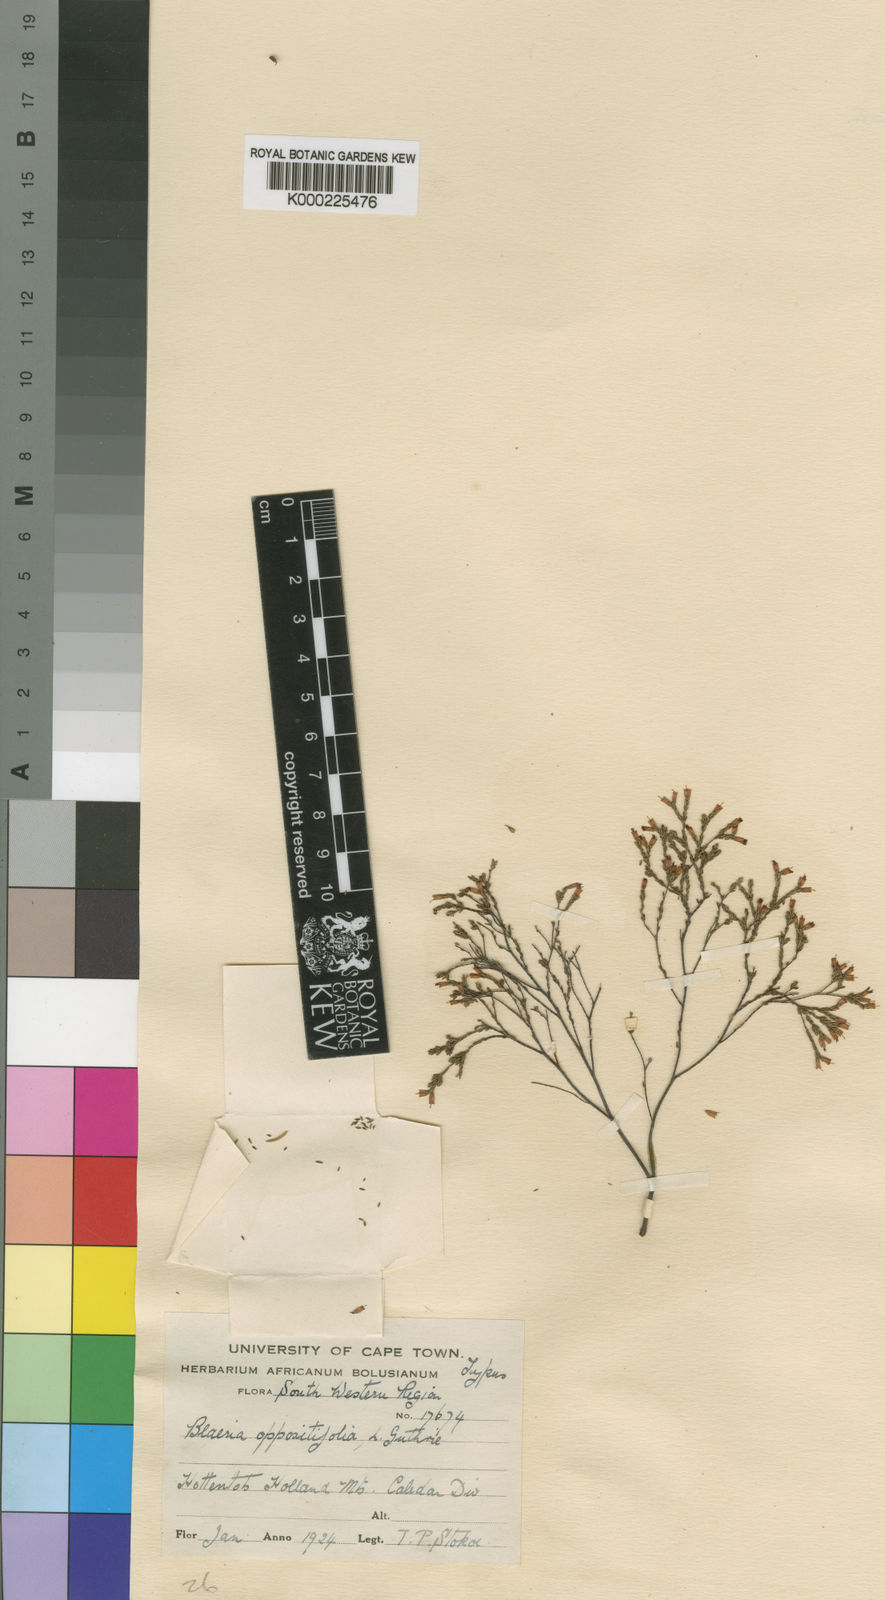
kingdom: Plantae
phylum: Tracheophyta
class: Magnoliopsida
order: Ericales
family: Ericaceae
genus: Erica
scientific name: Erica equisetifolia
